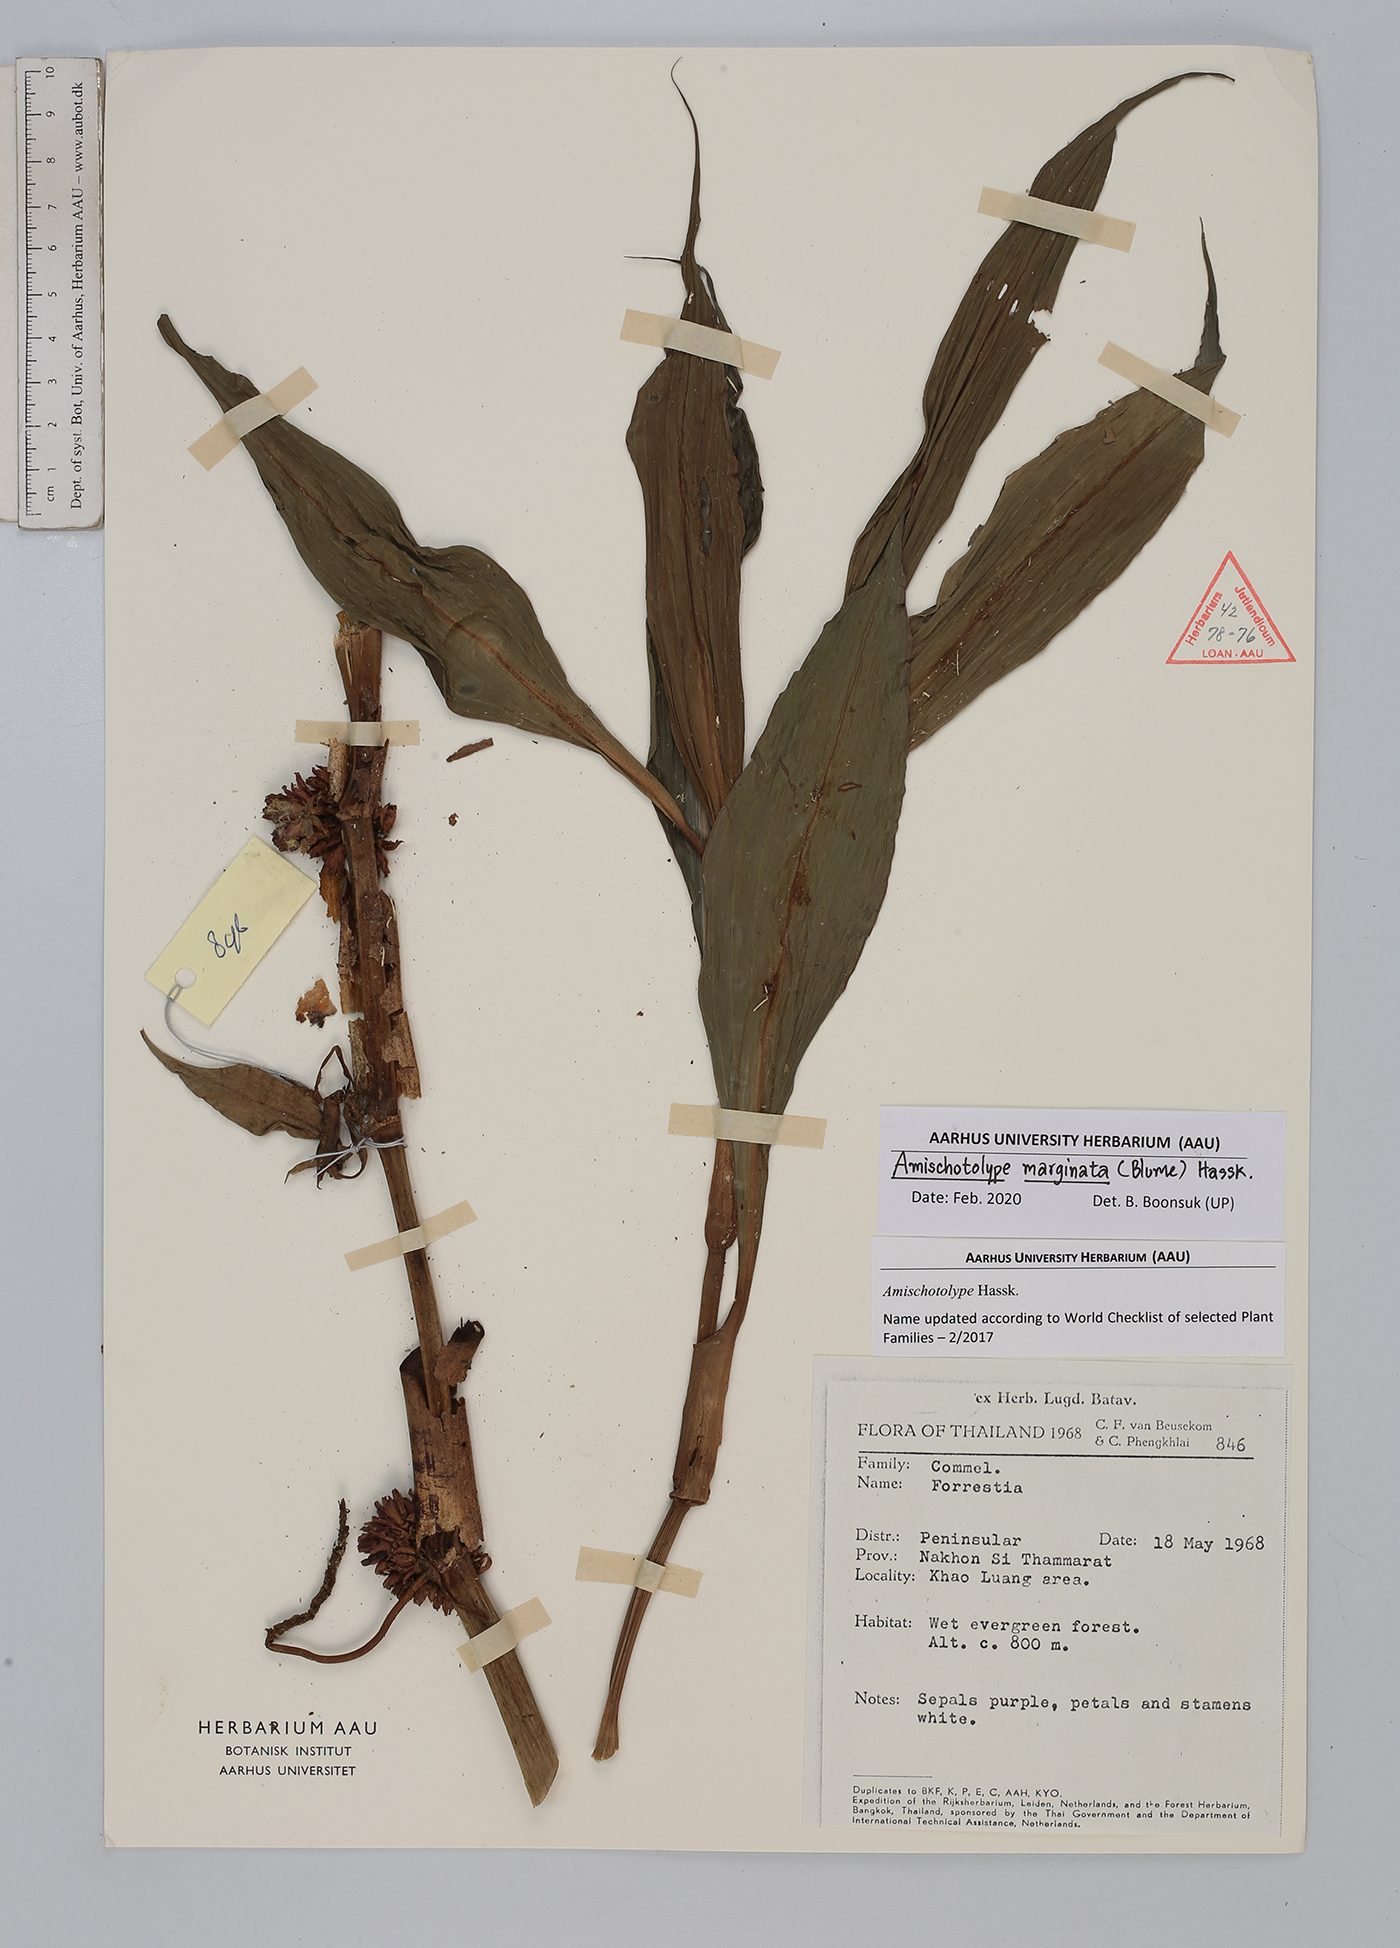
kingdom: Plantae
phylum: Tracheophyta
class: Liliopsida
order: Commelinales
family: Commelinaceae
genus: Amischotolype
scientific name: Amischotolype marginata
